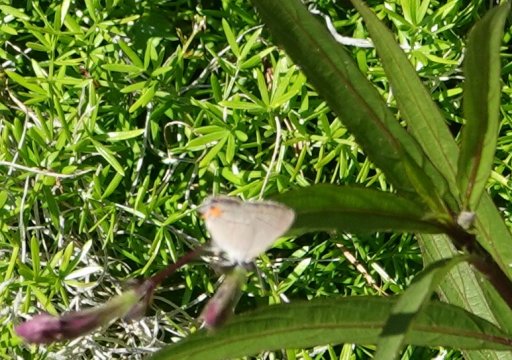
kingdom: Animalia
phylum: Arthropoda
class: Insecta
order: Lepidoptera
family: Lycaenidae
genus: Strymon
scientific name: Strymon melinus
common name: Gray Hairstreak
